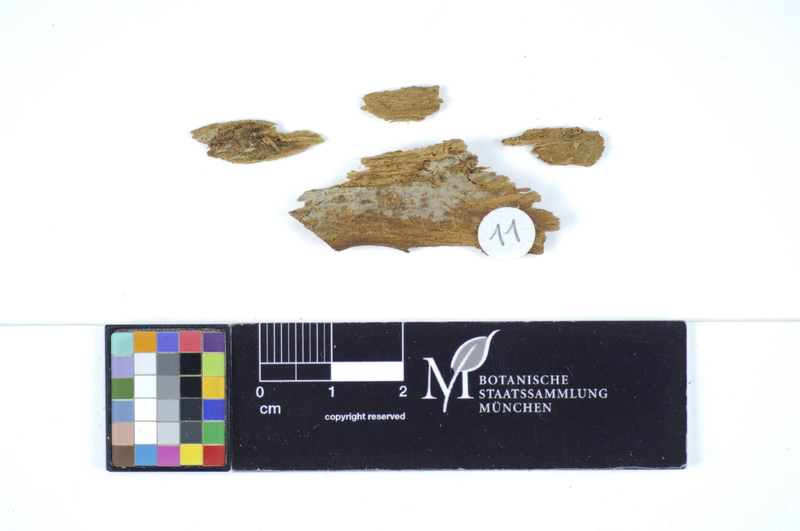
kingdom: Fungi
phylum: Basidiomycota
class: Agaricomycetes
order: Polyporales
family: Hyphodermataceae
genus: Hyphoderma
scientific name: Hyphoderma velatum
